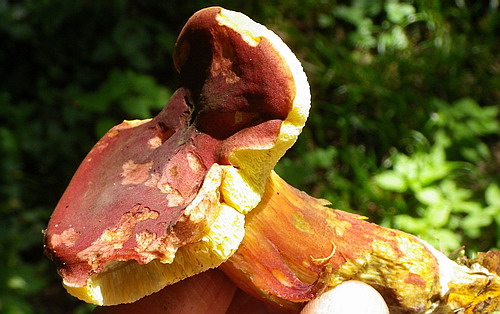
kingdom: Fungi
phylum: Basidiomycota
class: Agaricomycetes
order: Boletales
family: Boletaceae
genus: Hortiboletus
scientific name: Hortiboletus rubellus
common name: blodrød rørhat
